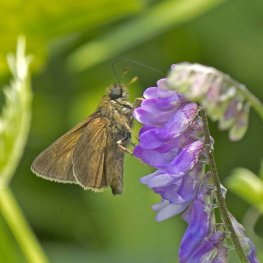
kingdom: Animalia
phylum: Arthropoda
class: Insecta
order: Lepidoptera
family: Hesperiidae
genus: Euphyes
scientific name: Euphyes vestris
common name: Dun Skipper
